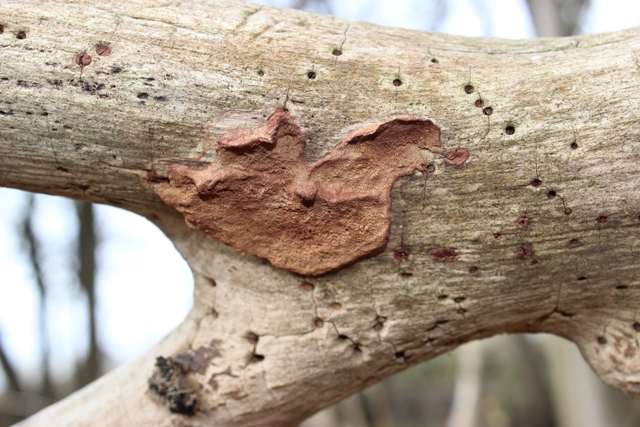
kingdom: Fungi
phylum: Basidiomycota
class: Agaricomycetes
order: Polyporales
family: Phanerochaetaceae
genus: Hapalopilus
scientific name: Hapalopilus rutilans
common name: rødlig okkerporesvamp
